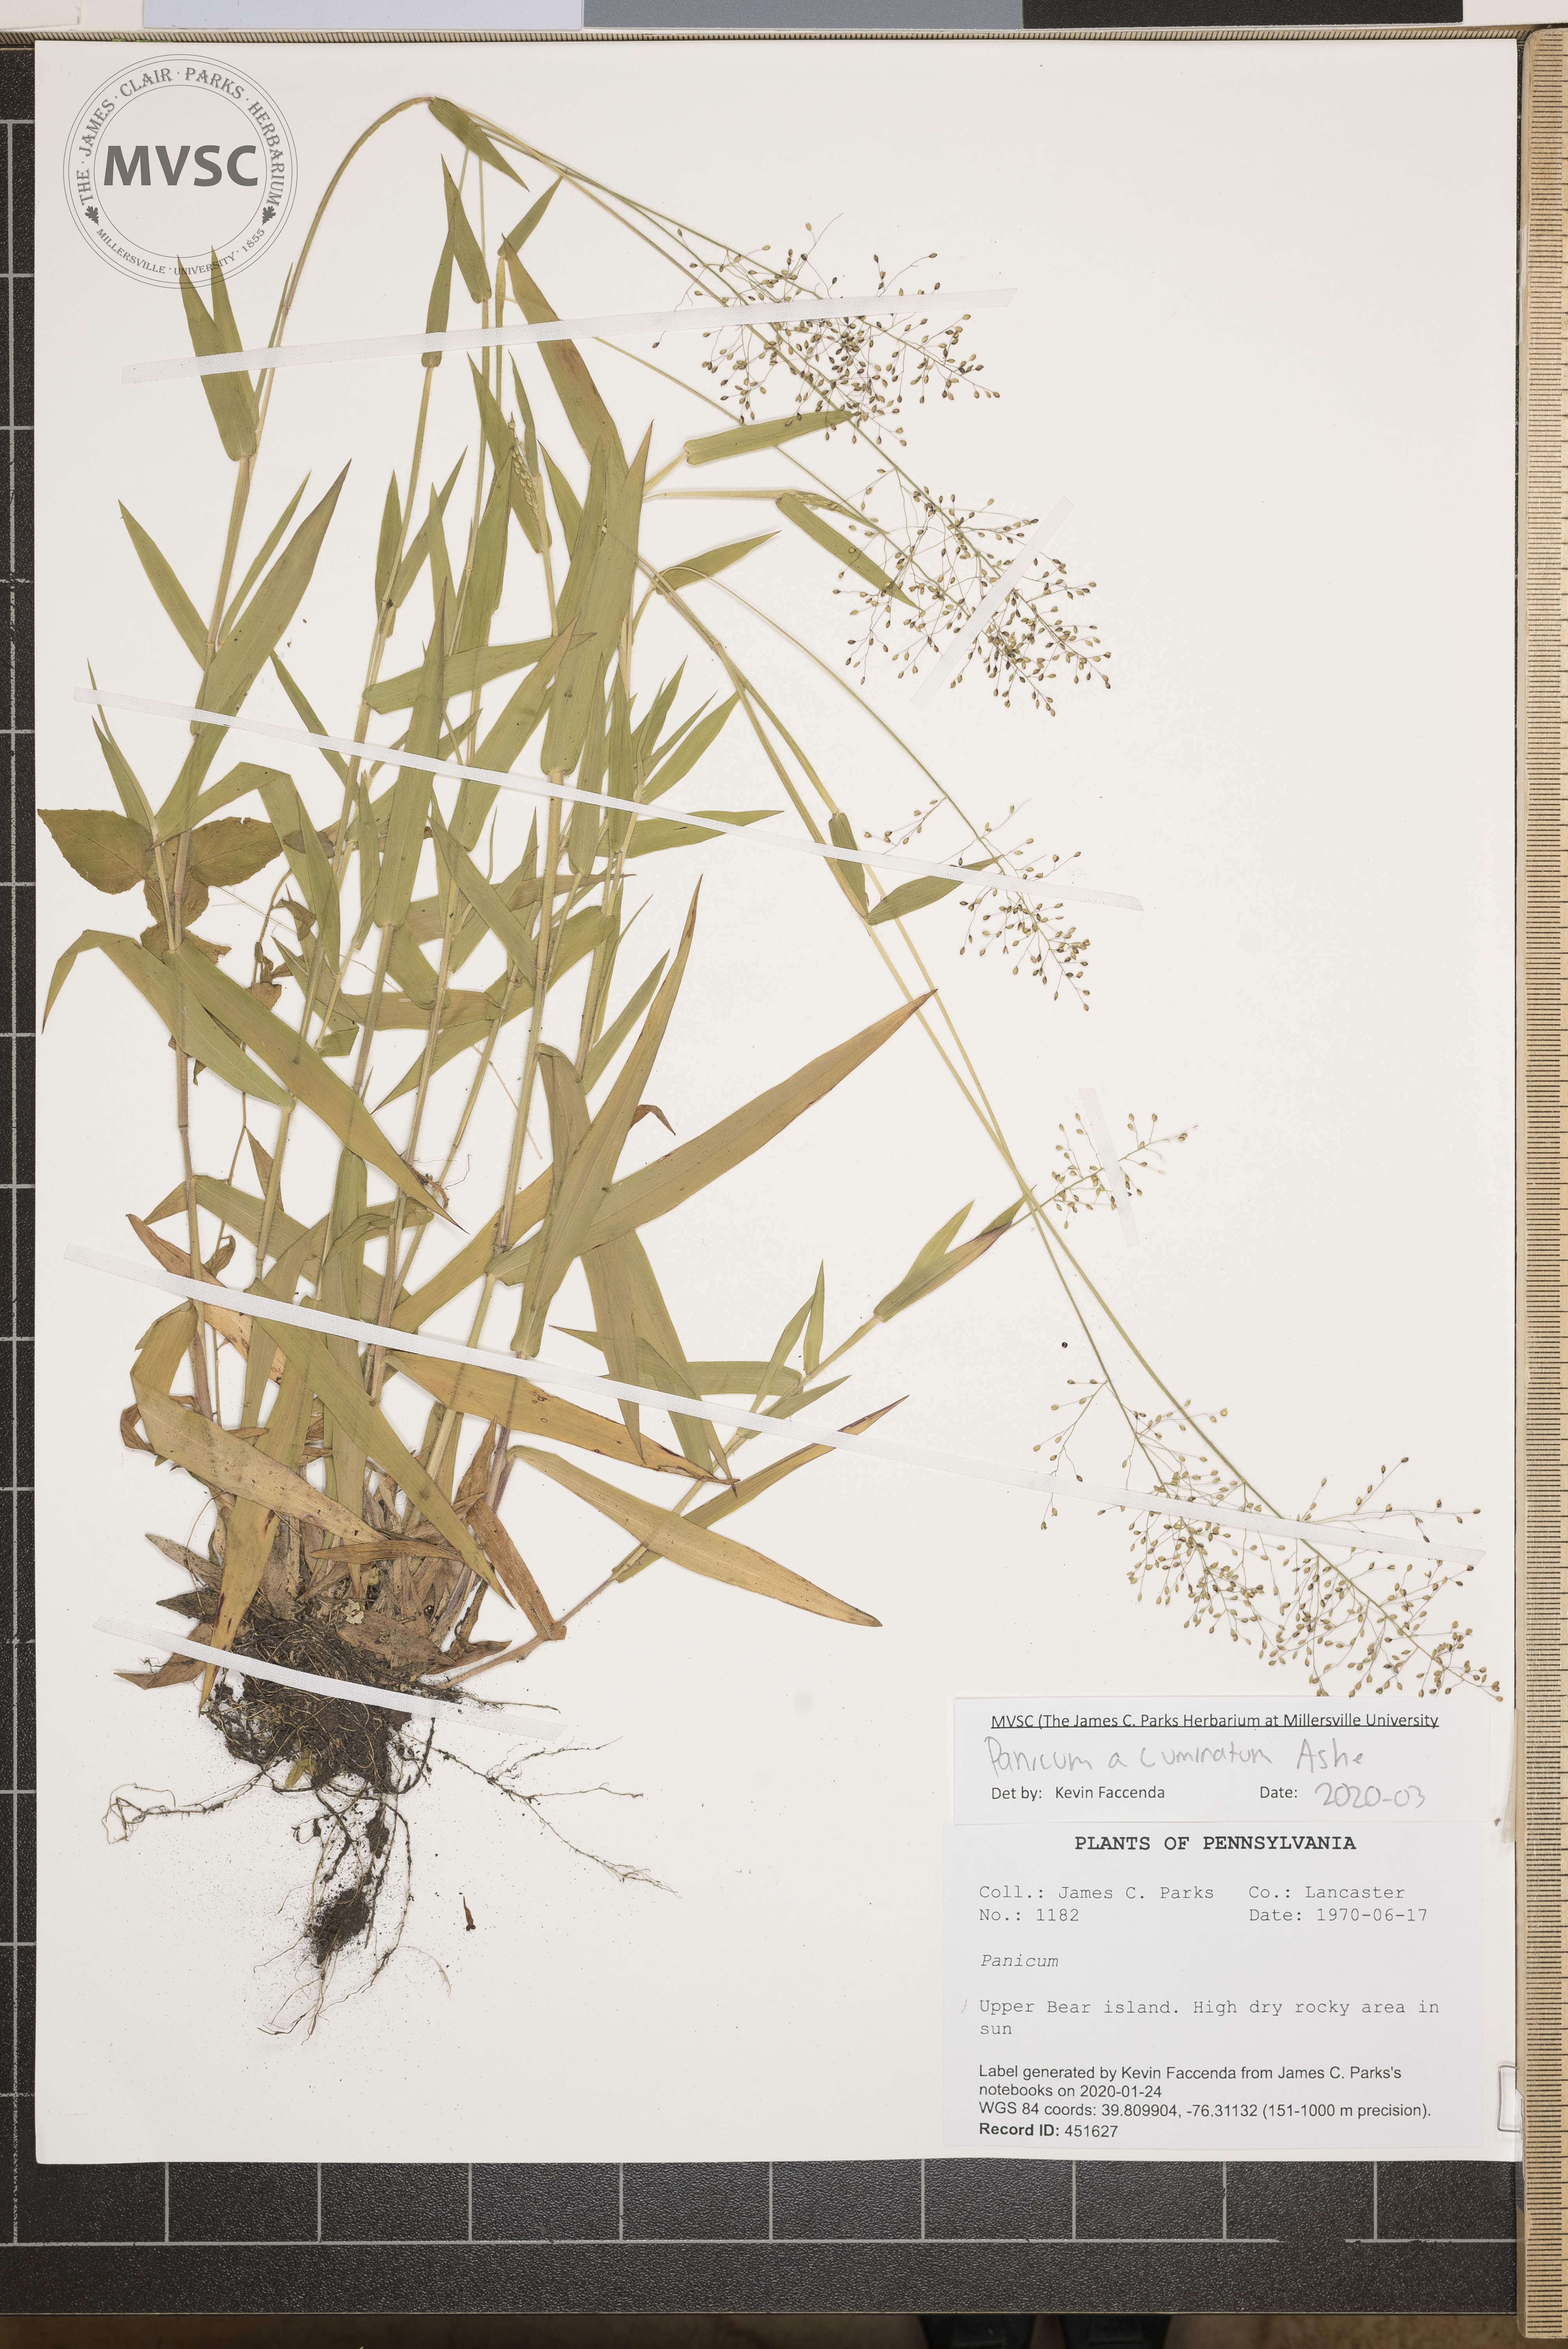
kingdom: Plantae
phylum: Tracheophyta
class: Liliopsida
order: Poales
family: Poaceae
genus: Panicum
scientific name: Panicum acuminatum
